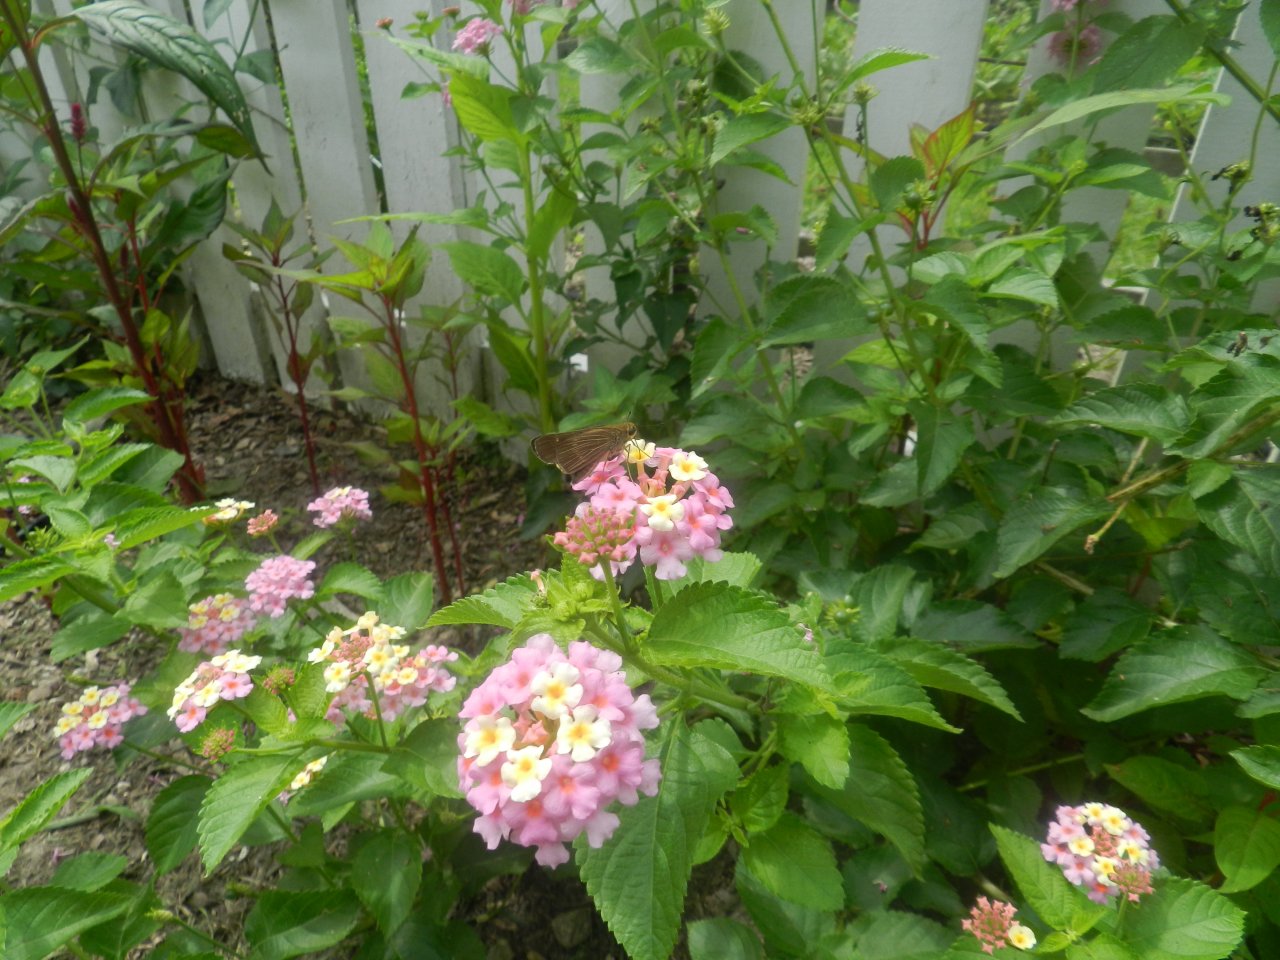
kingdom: Animalia
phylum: Arthropoda
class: Insecta
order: Lepidoptera
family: Hesperiidae
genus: Panoquina
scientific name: Panoquina ocola
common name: Ocola Skipper
